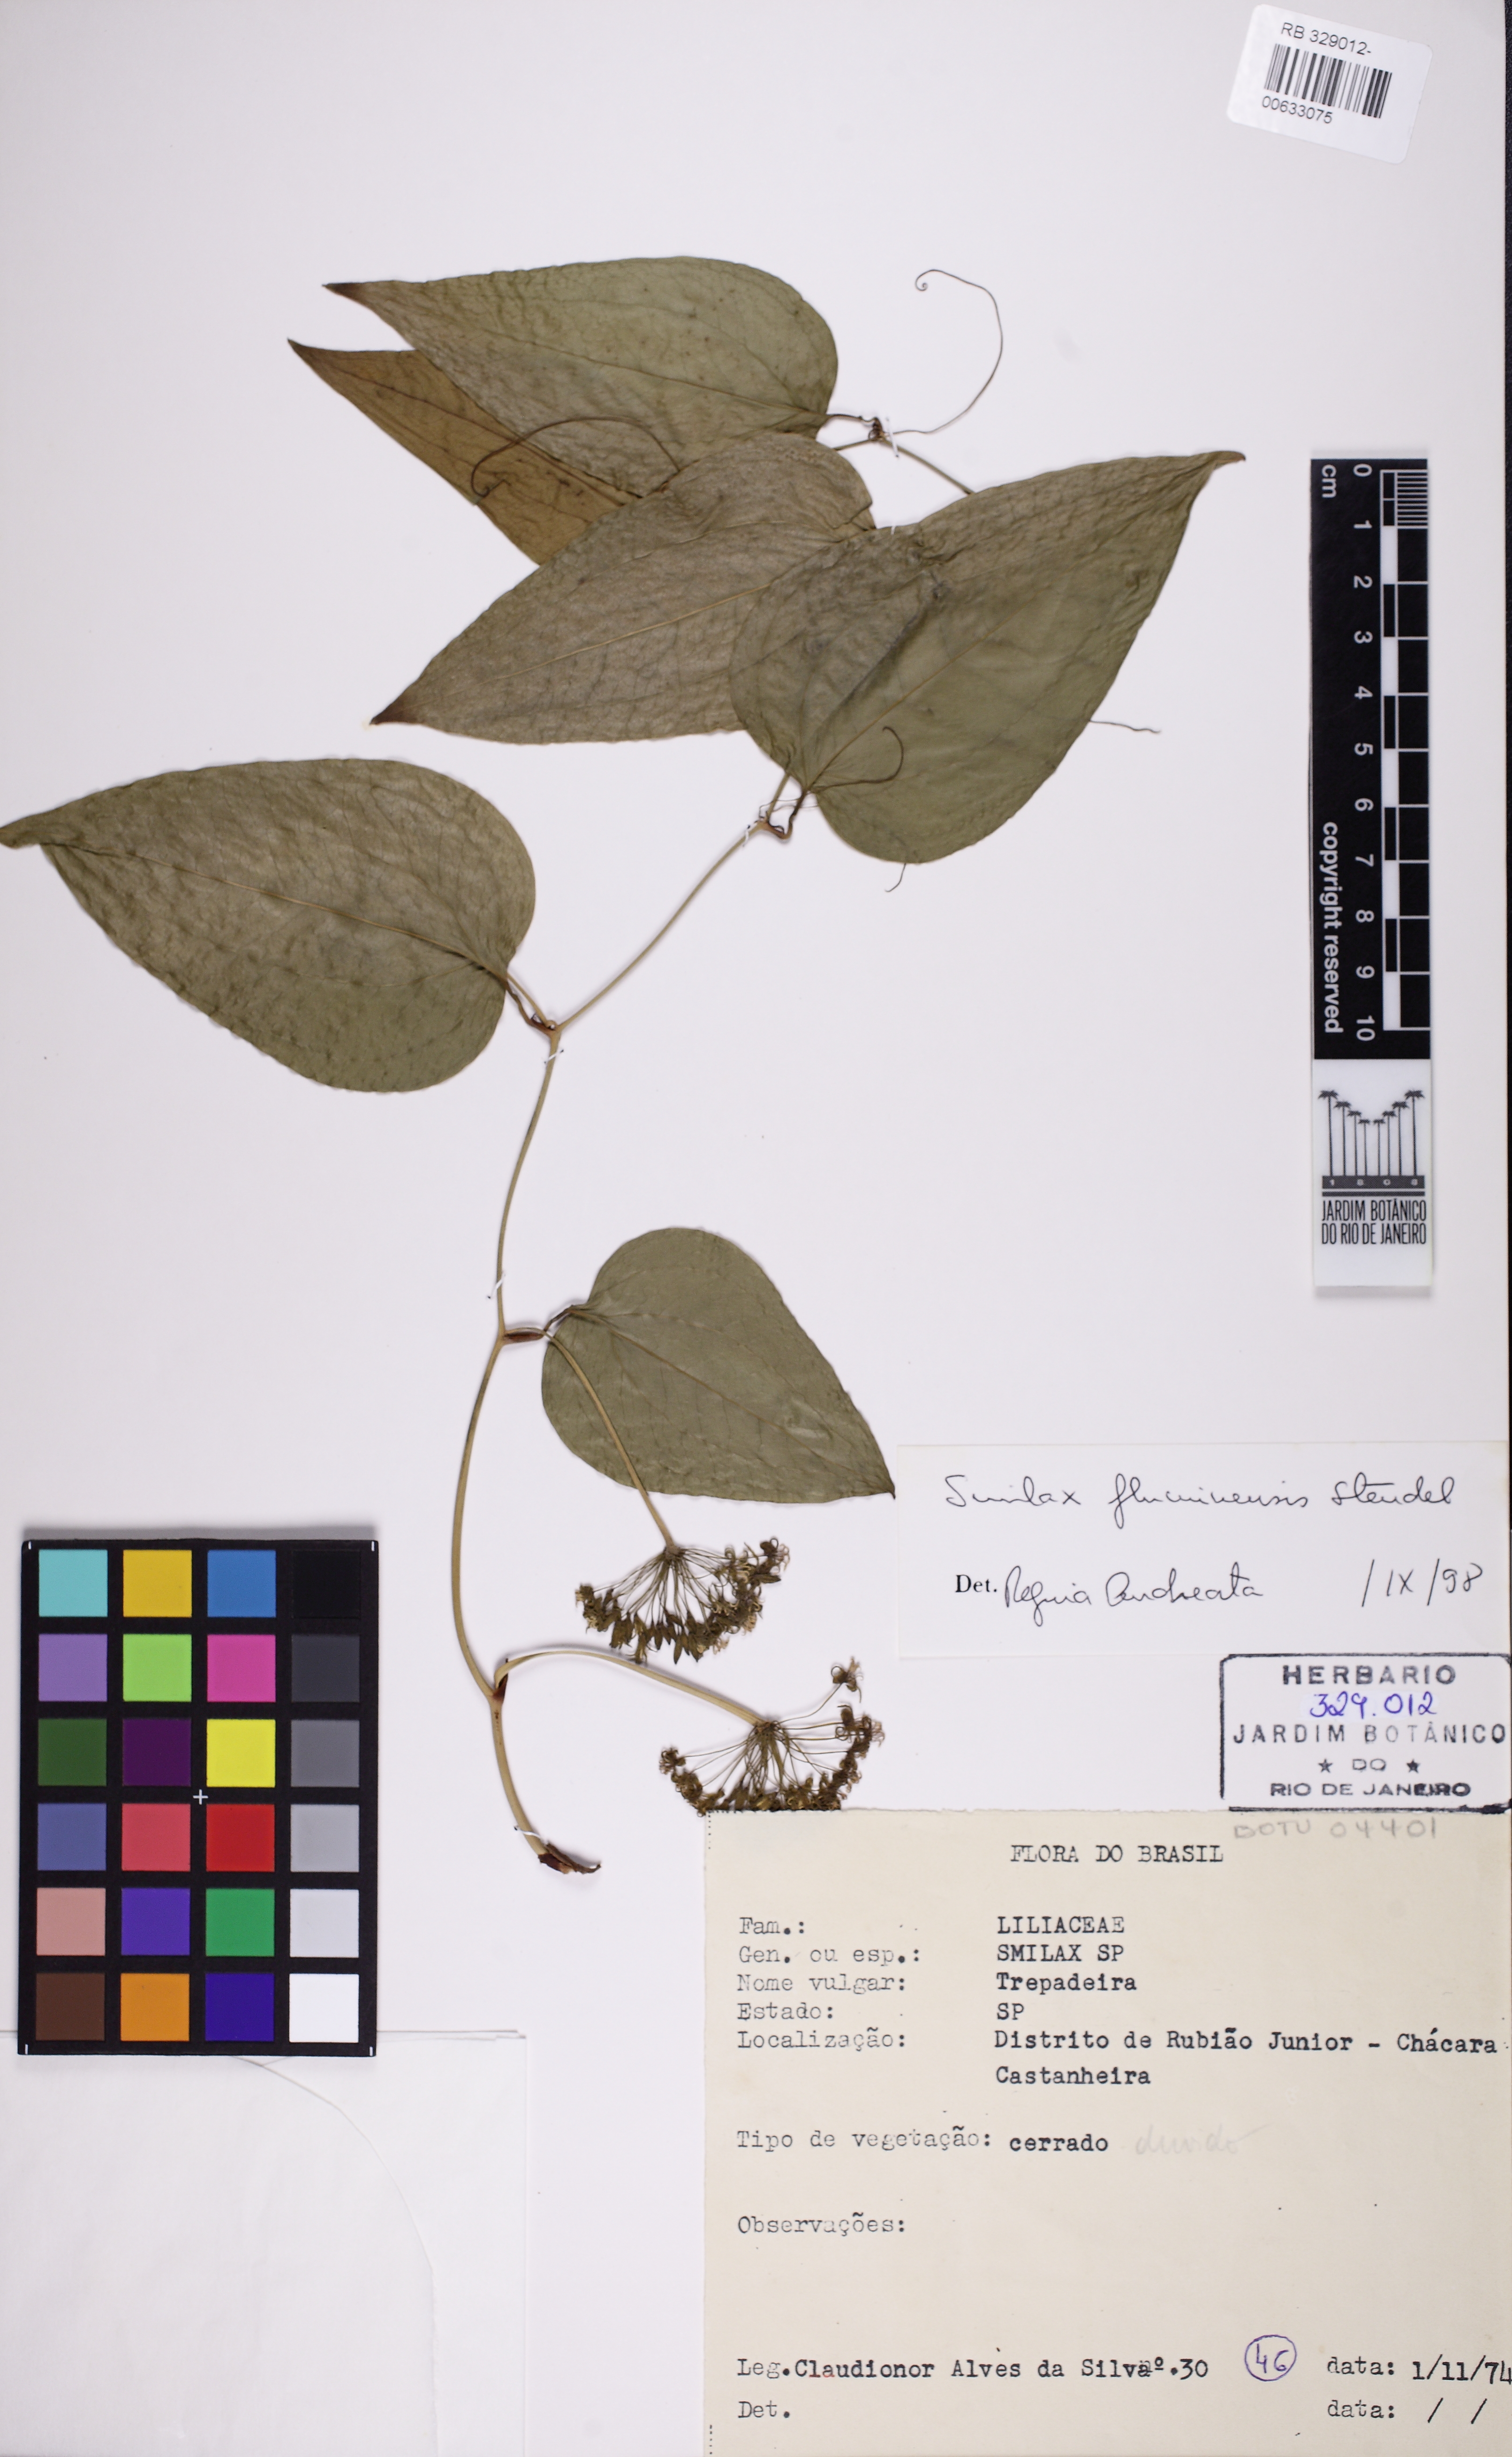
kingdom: Plantae
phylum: Tracheophyta
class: Liliopsida
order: Liliales
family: Smilacaceae
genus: Smilax
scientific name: Smilax fluminensis
